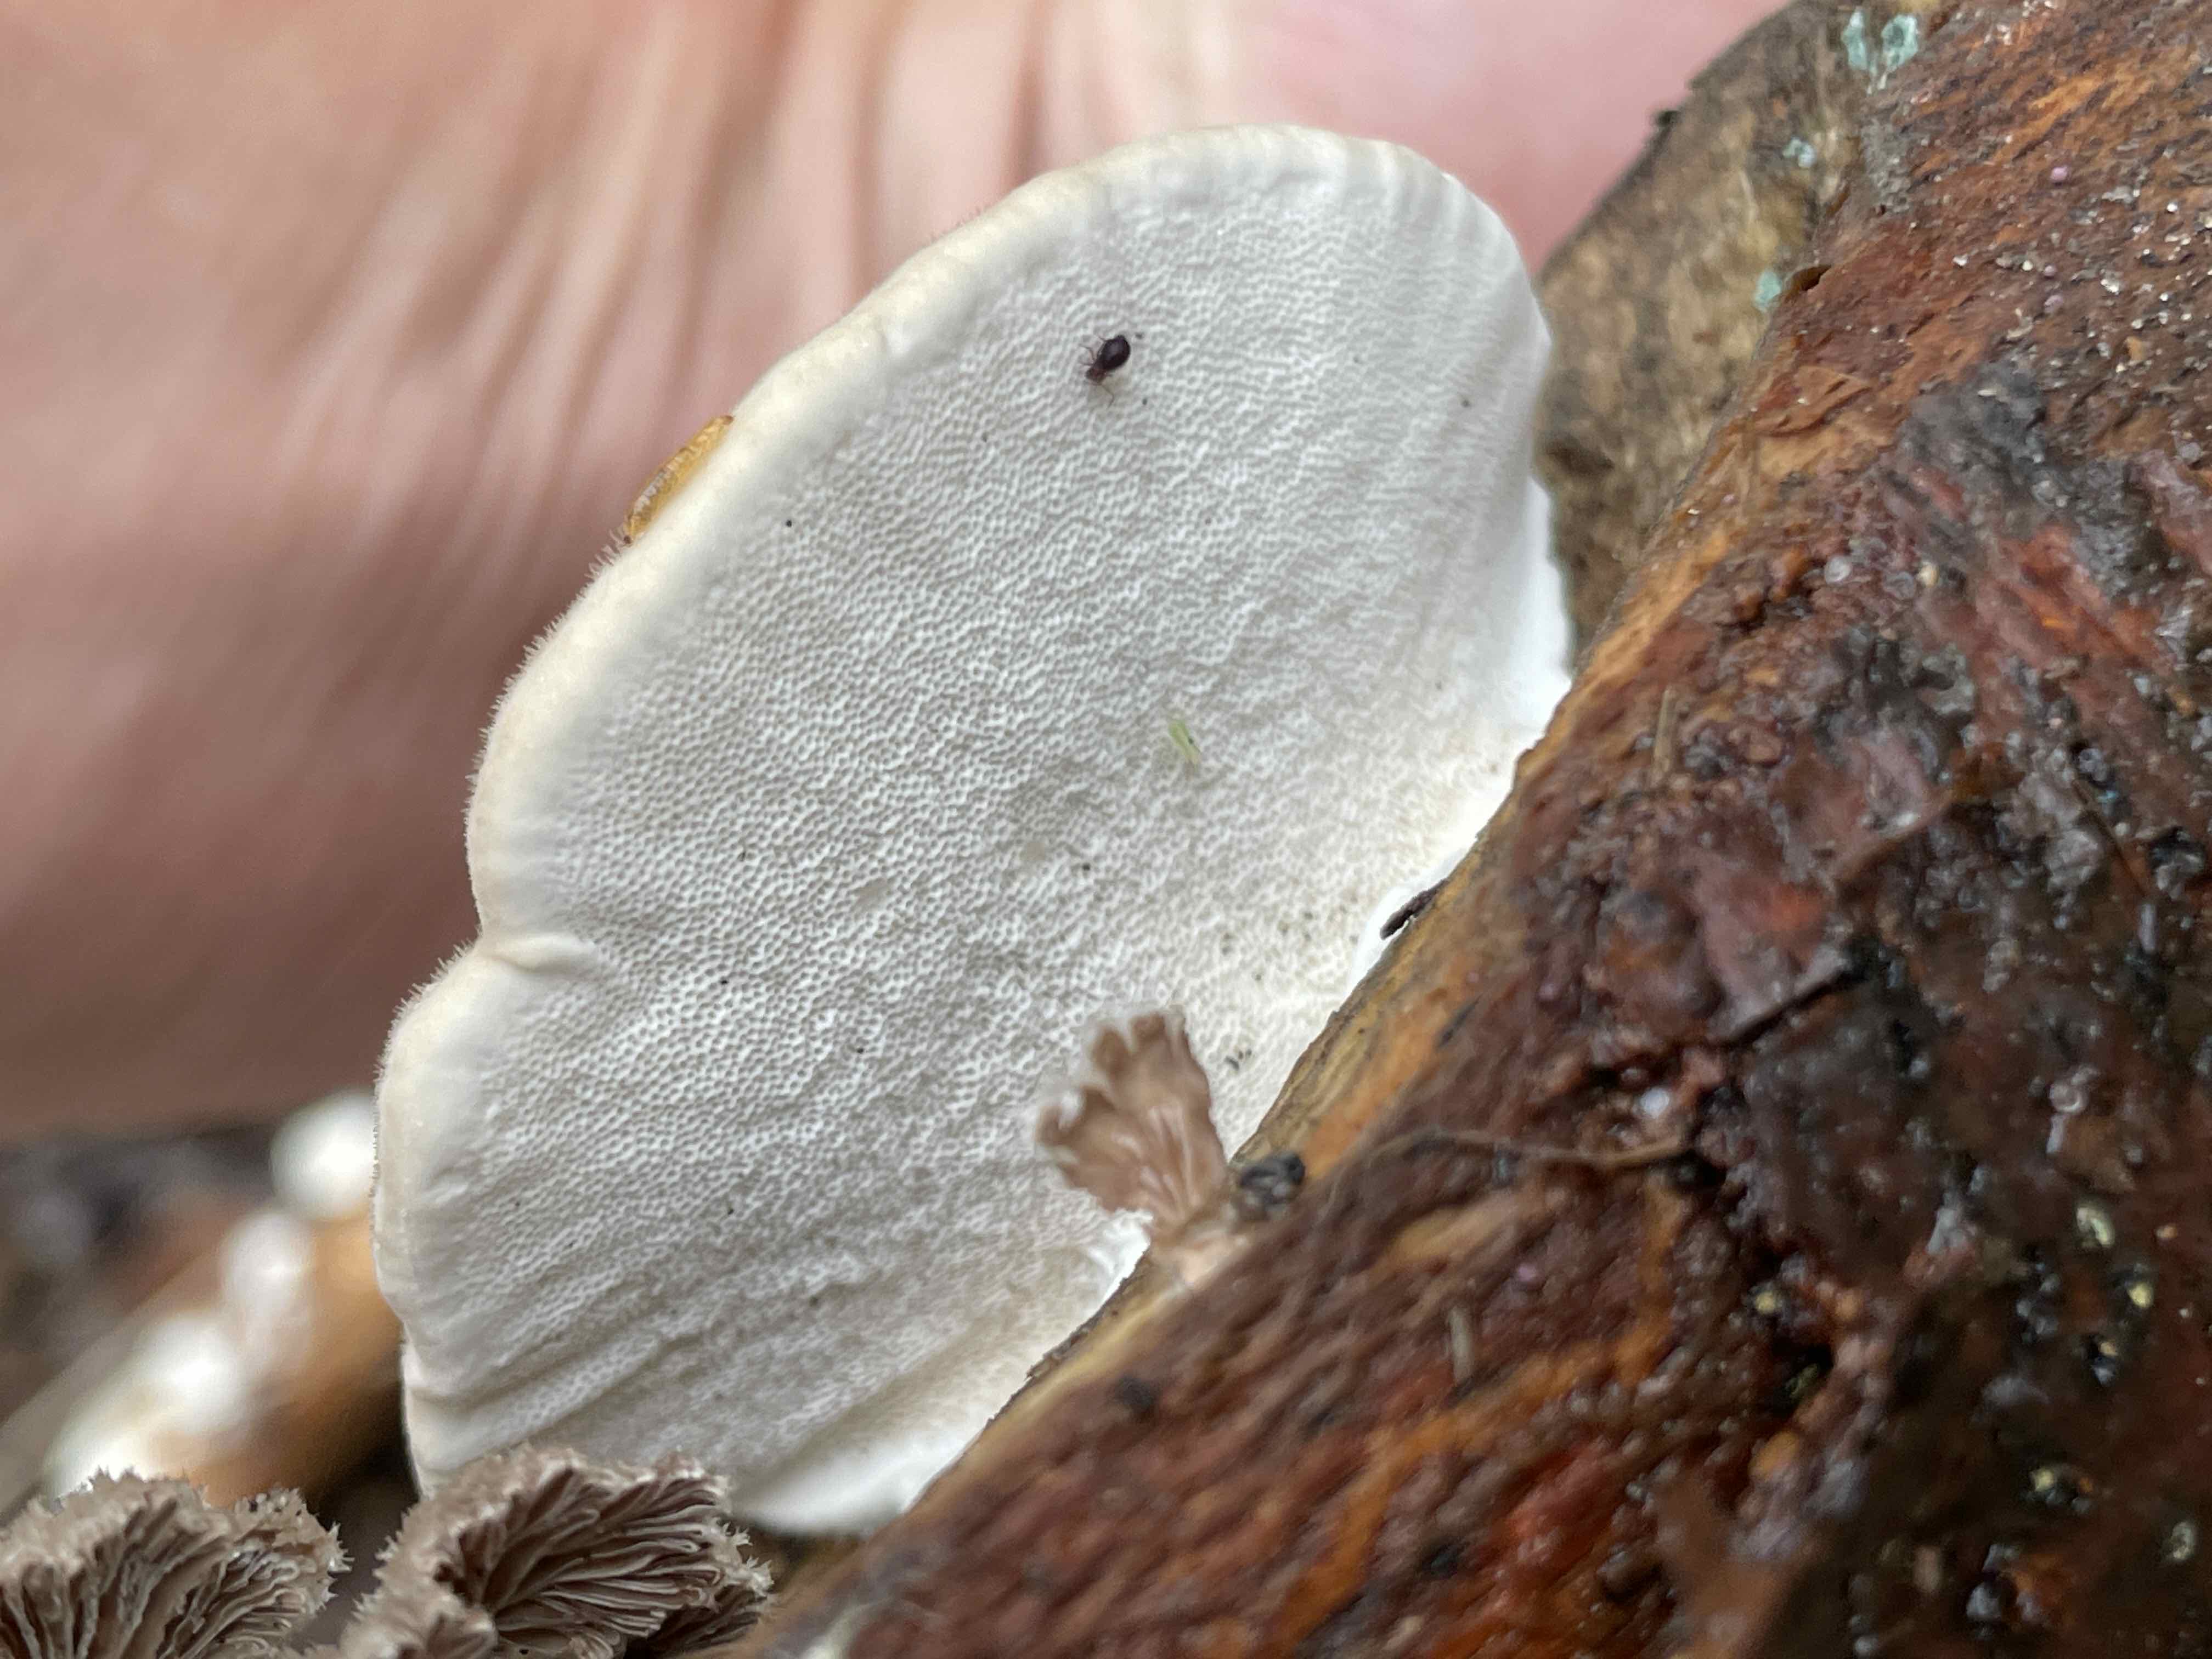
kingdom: Fungi
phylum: Basidiomycota
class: Agaricomycetes
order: Polyporales
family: Polyporaceae
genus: Trametes
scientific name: Trametes hirsuta
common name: håret læderporesvamp
